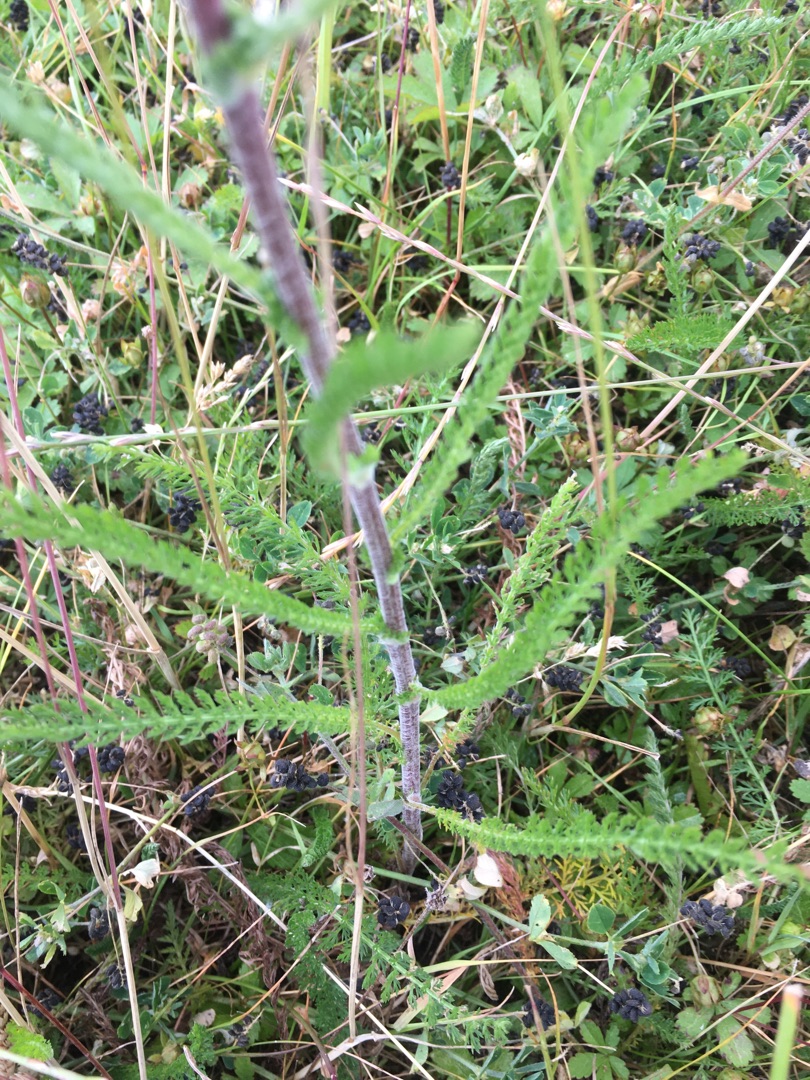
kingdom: Plantae
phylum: Tracheophyta
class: Magnoliopsida
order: Asterales
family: Asteraceae
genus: Achillea
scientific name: Achillea millefolium
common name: Almindelig røllike
